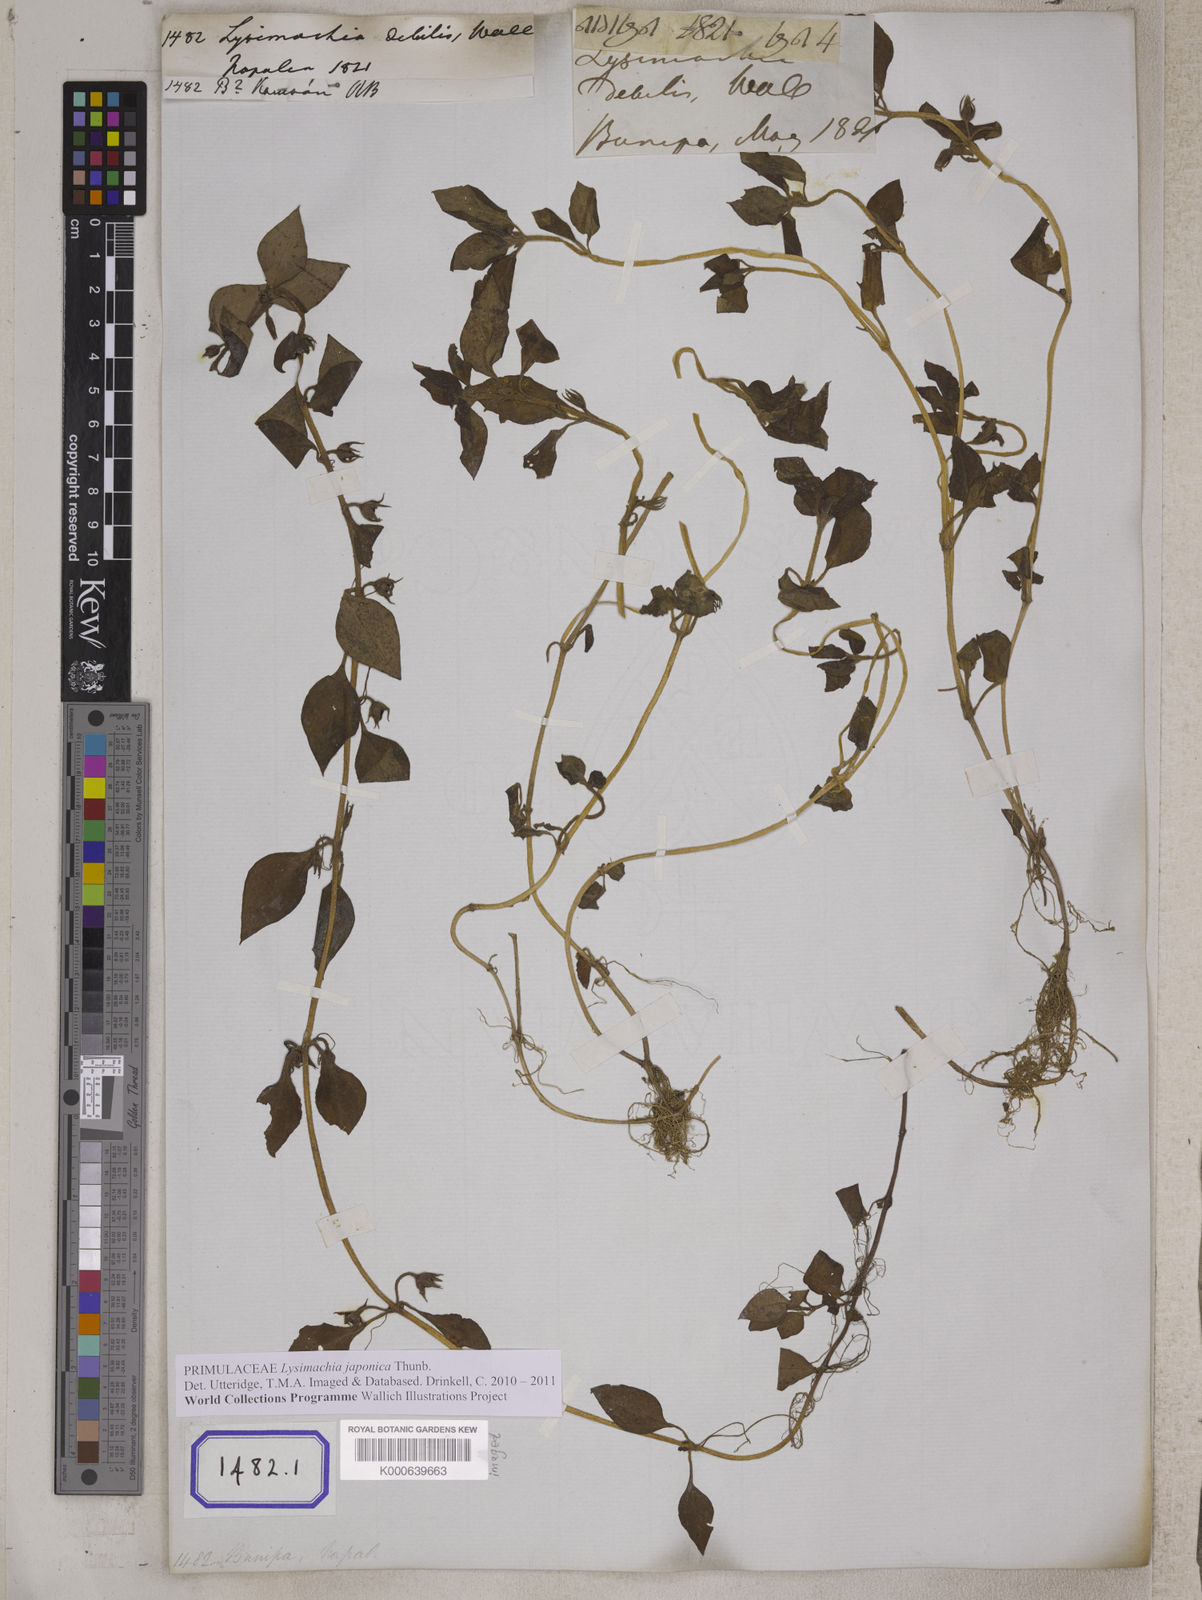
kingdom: Plantae
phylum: Tracheophyta
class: Magnoliopsida
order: Ericales
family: Primulaceae
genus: Lysimachia
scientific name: Lysimachia japonica
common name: Japanese yellow loosestrife
